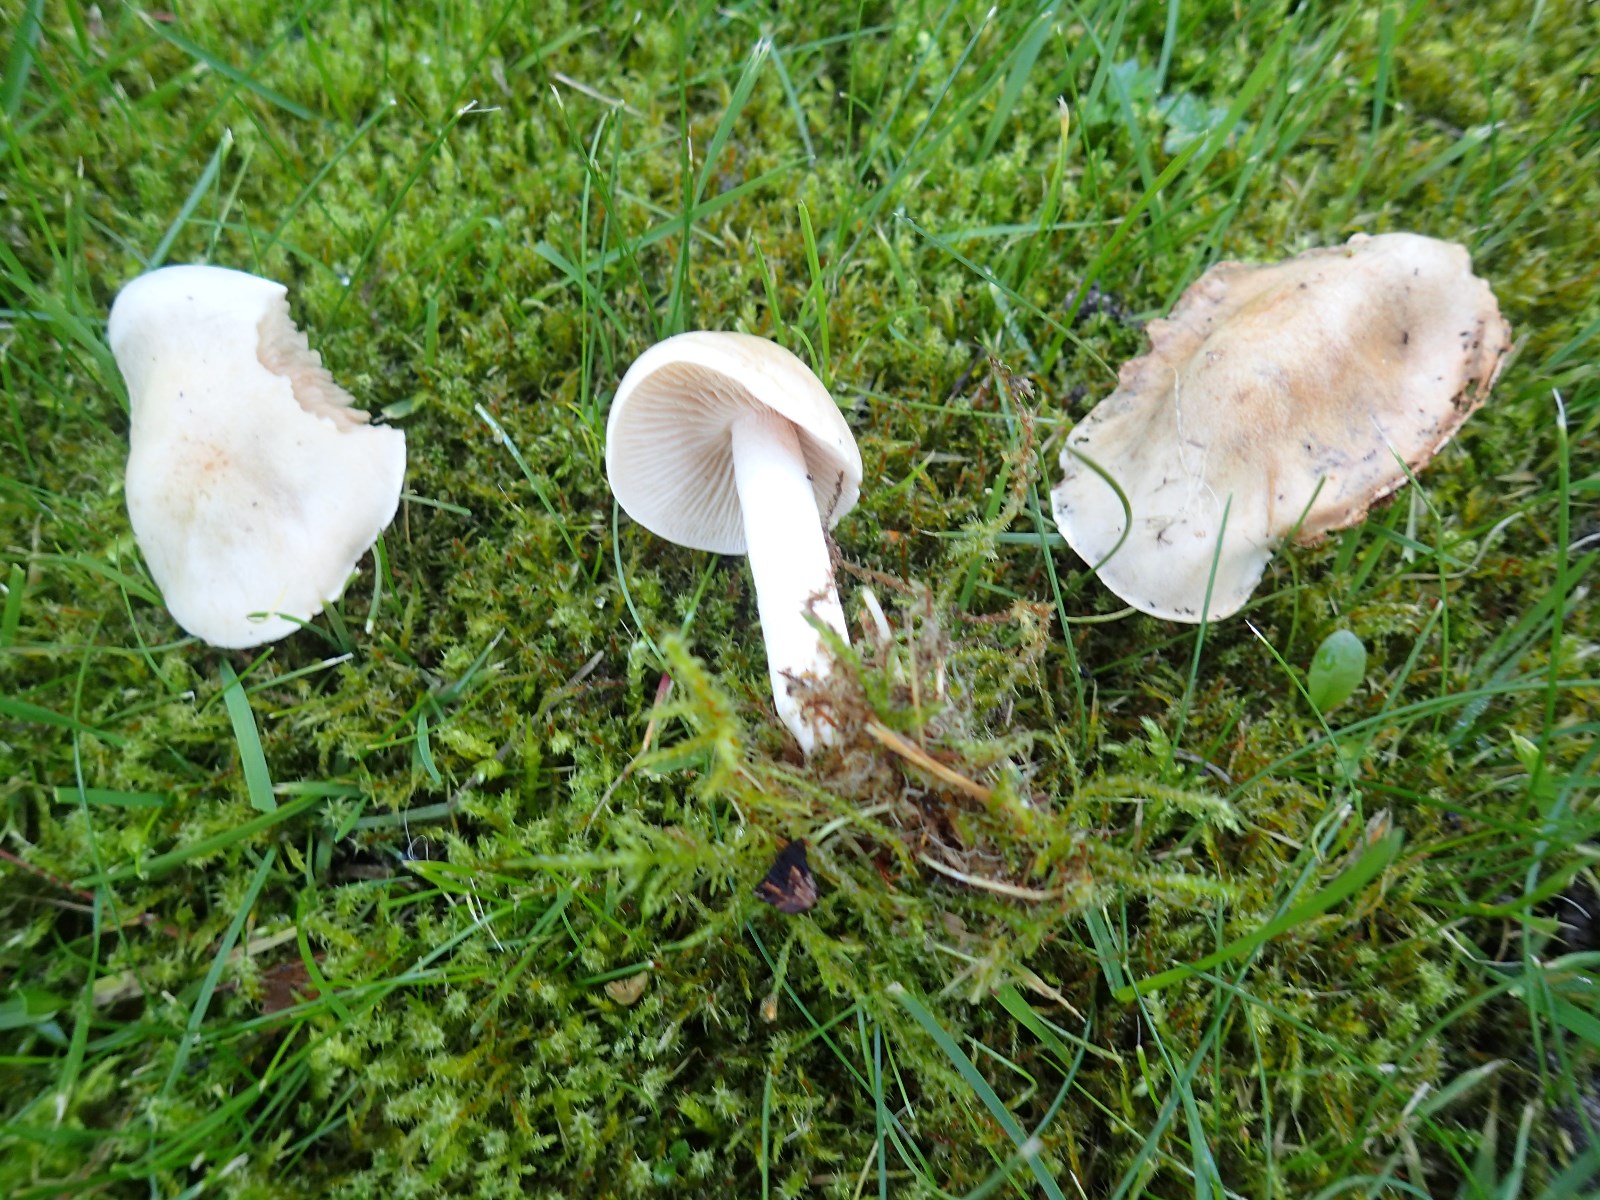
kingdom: Fungi
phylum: Basidiomycota
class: Agaricomycetes
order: Agaricales
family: Hymenogastraceae
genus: Hebeloma
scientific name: Hebeloma
